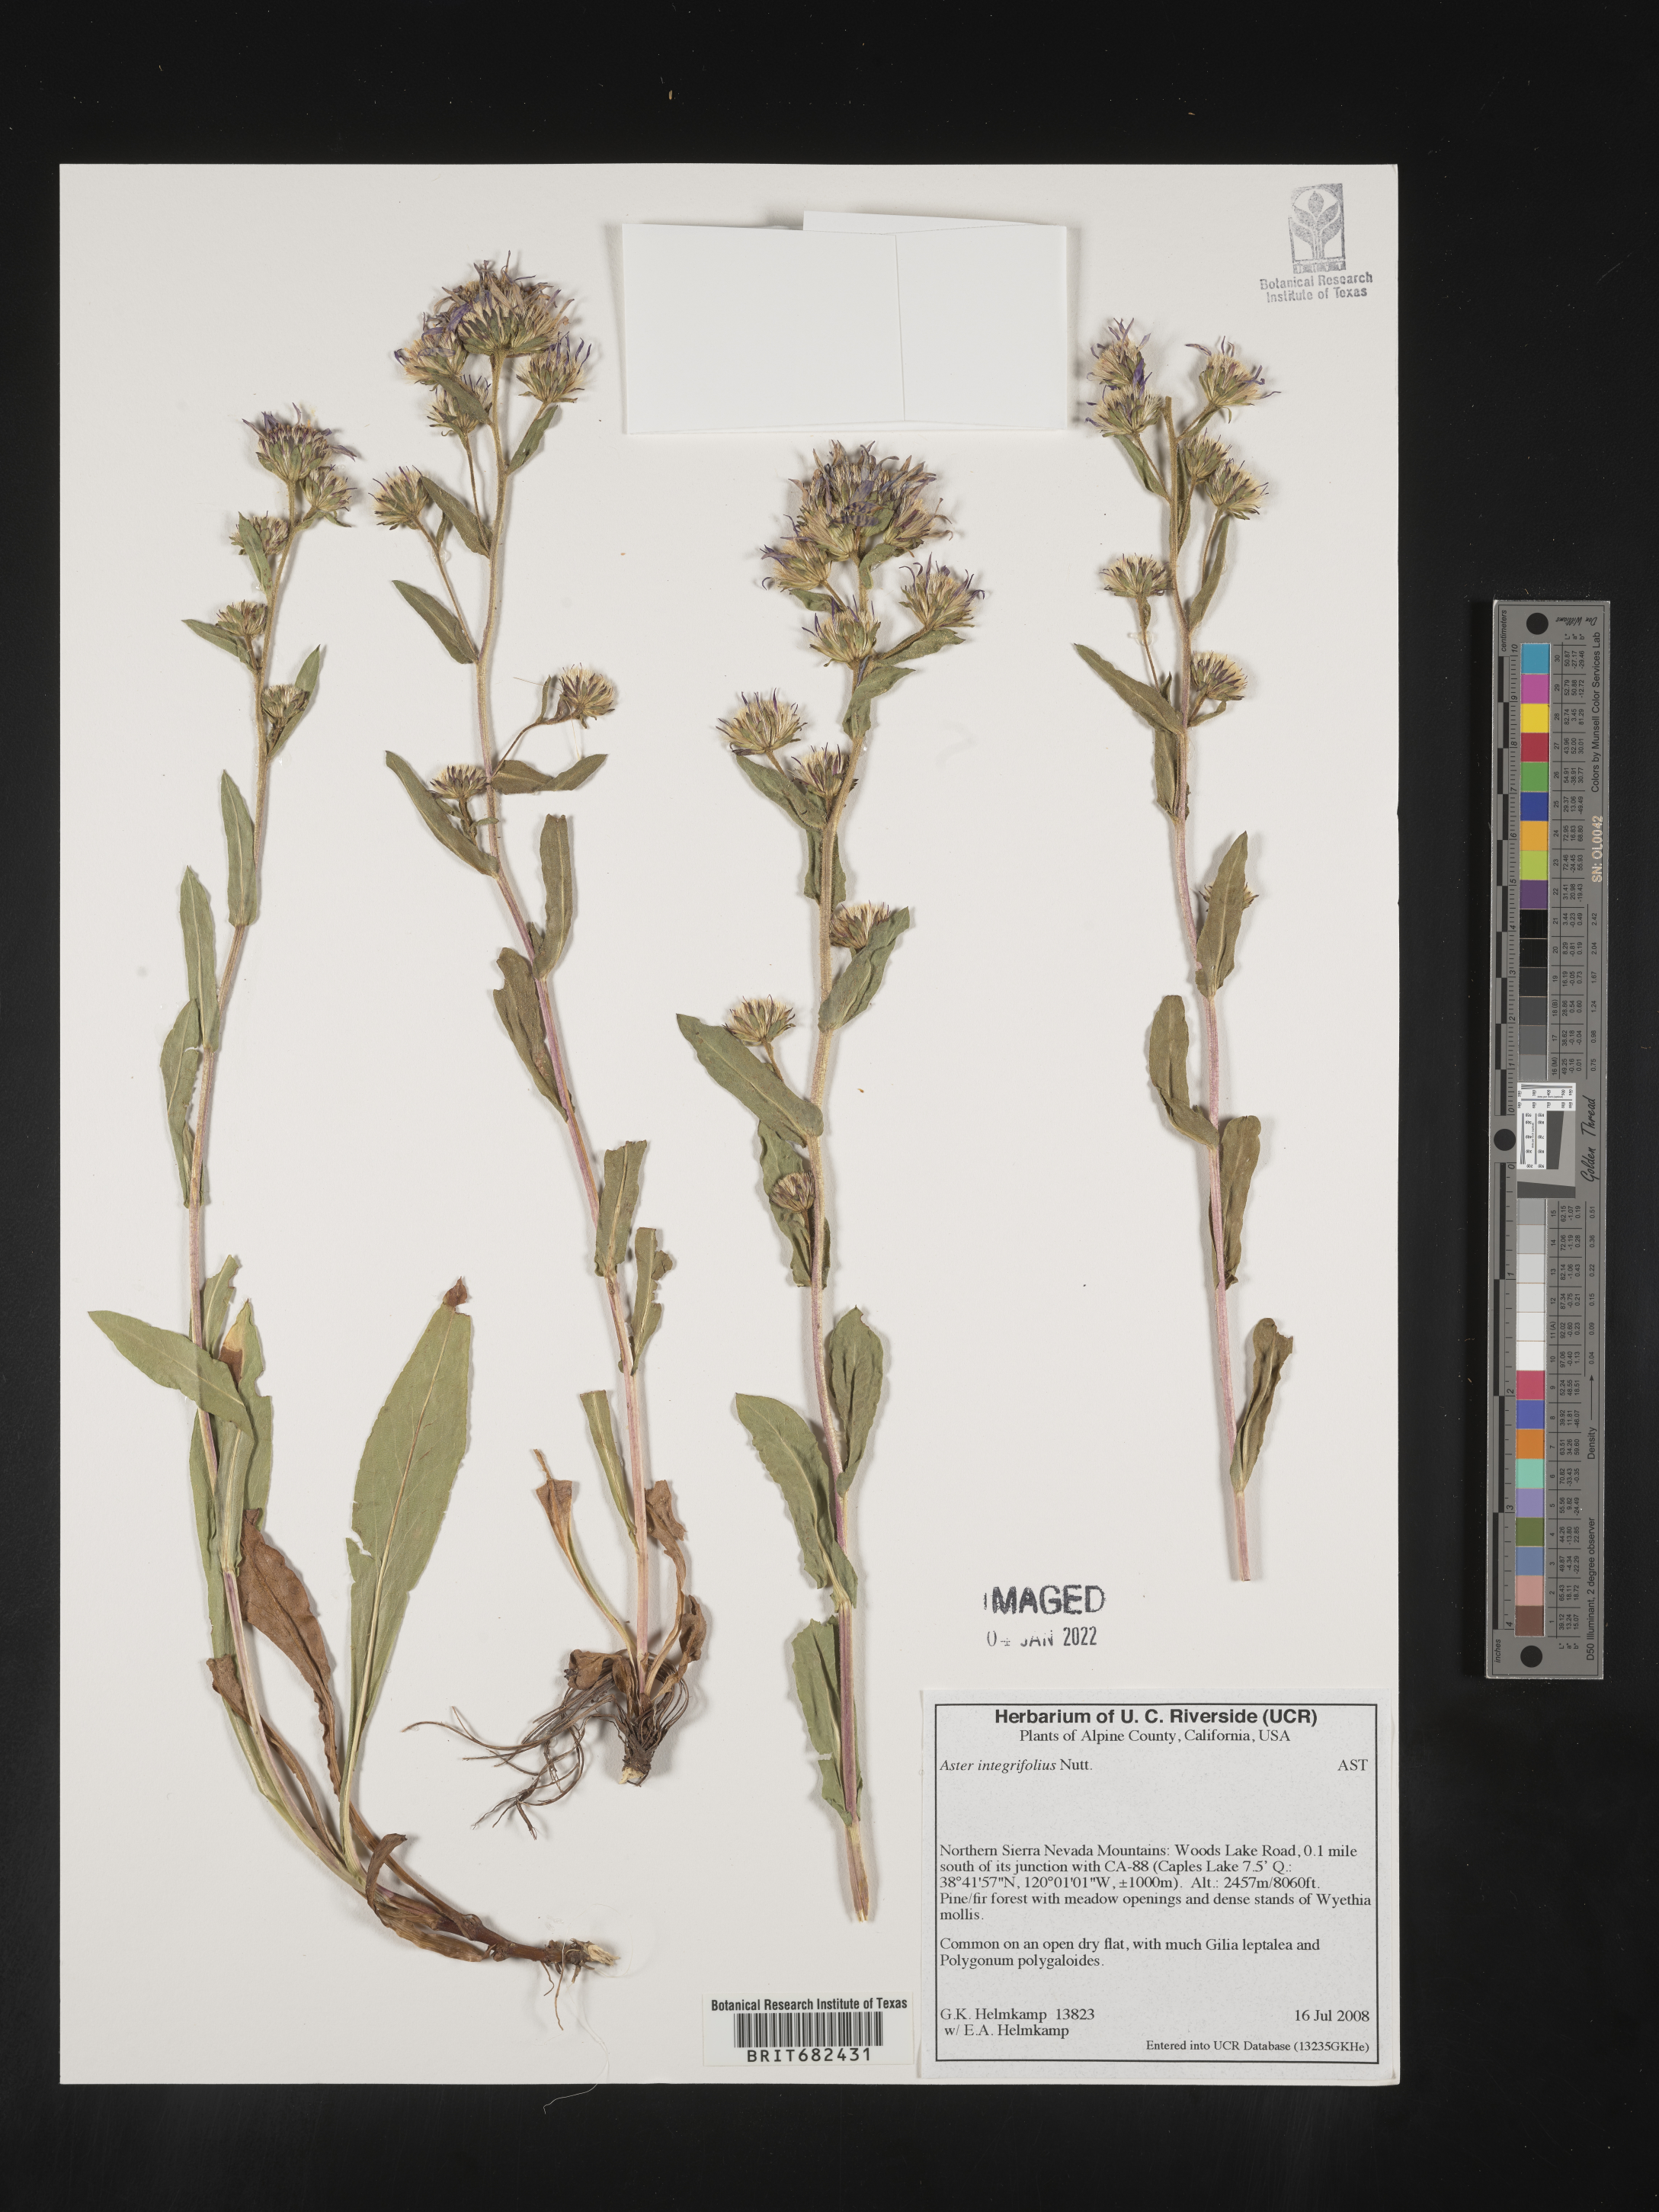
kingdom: Plantae
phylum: Tracheophyta
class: Magnoliopsida
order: Asterales
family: Asteraceae
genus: Aster
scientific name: Aster
